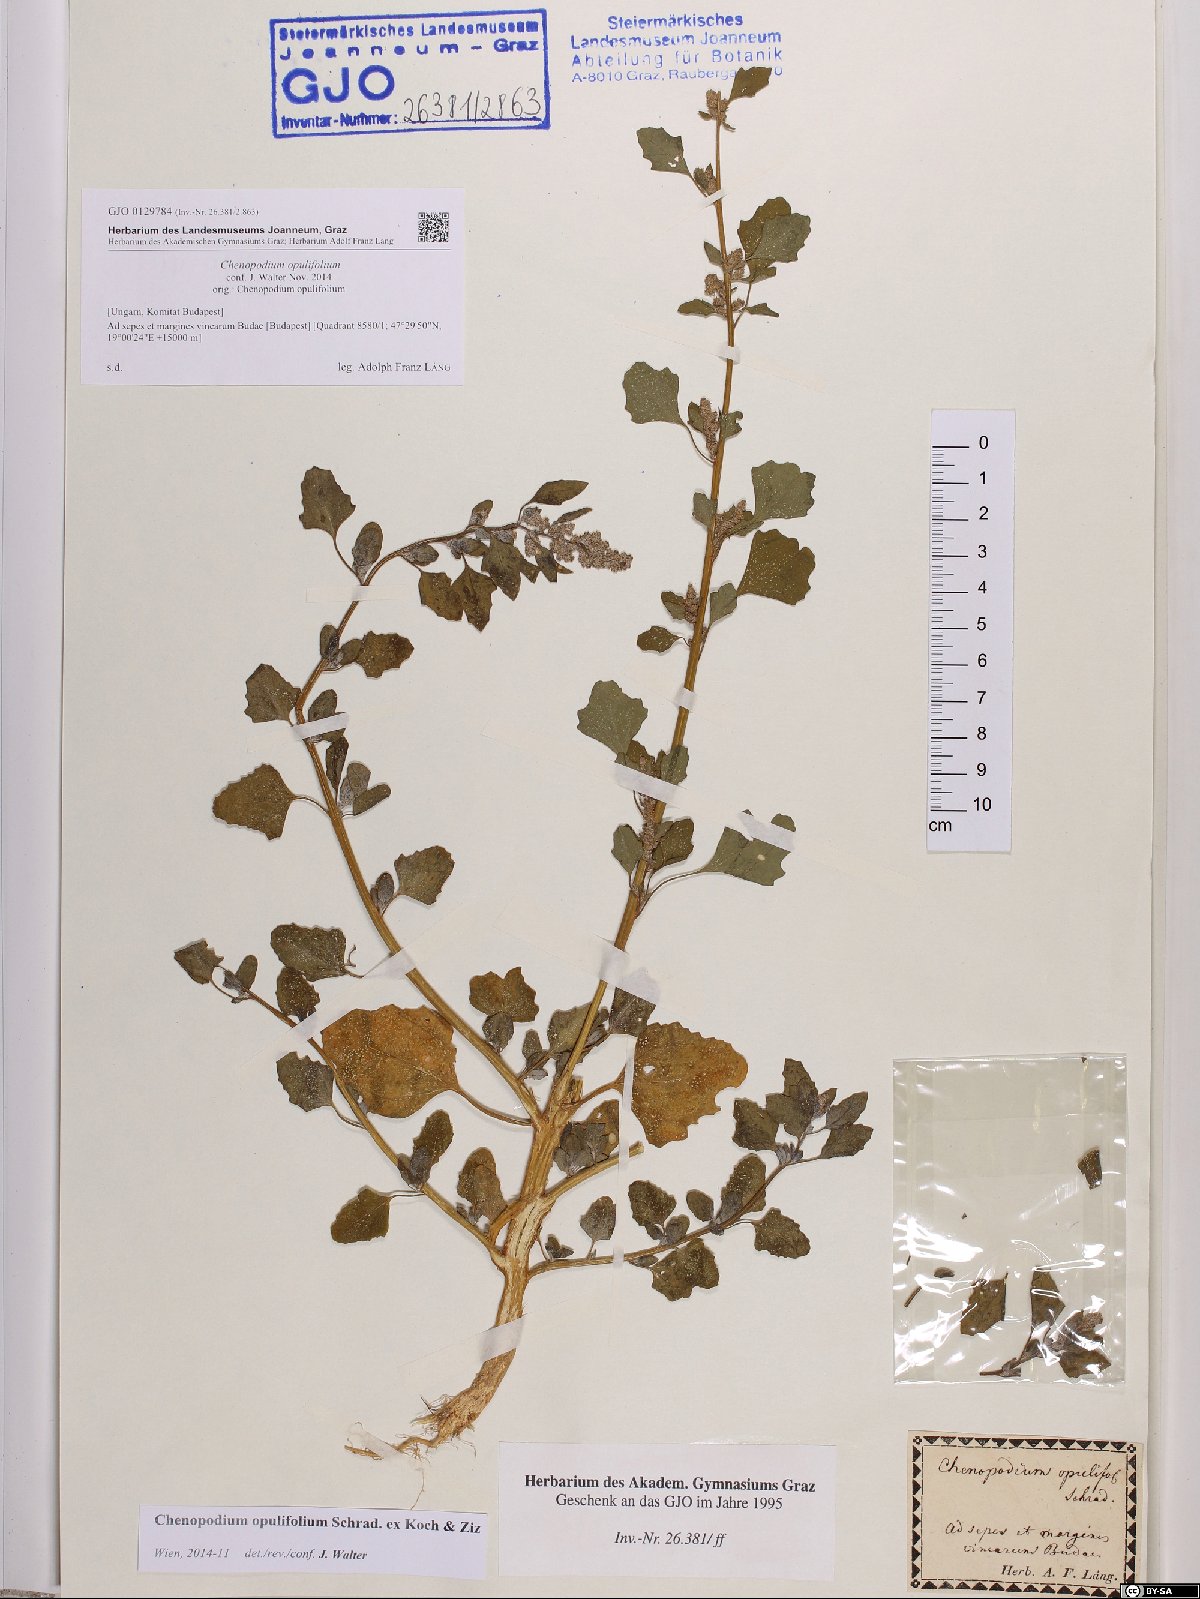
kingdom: Plantae
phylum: Tracheophyta
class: Magnoliopsida
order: Caryophyllales
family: Amaranthaceae
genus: Chenopodium
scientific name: Chenopodium opulifolium
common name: Grey goosefoot
